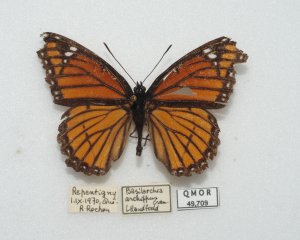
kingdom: Animalia
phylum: Arthropoda
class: Insecta
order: Lepidoptera
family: Nymphalidae
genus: Limenitis
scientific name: Limenitis archippus
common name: Viceroy
